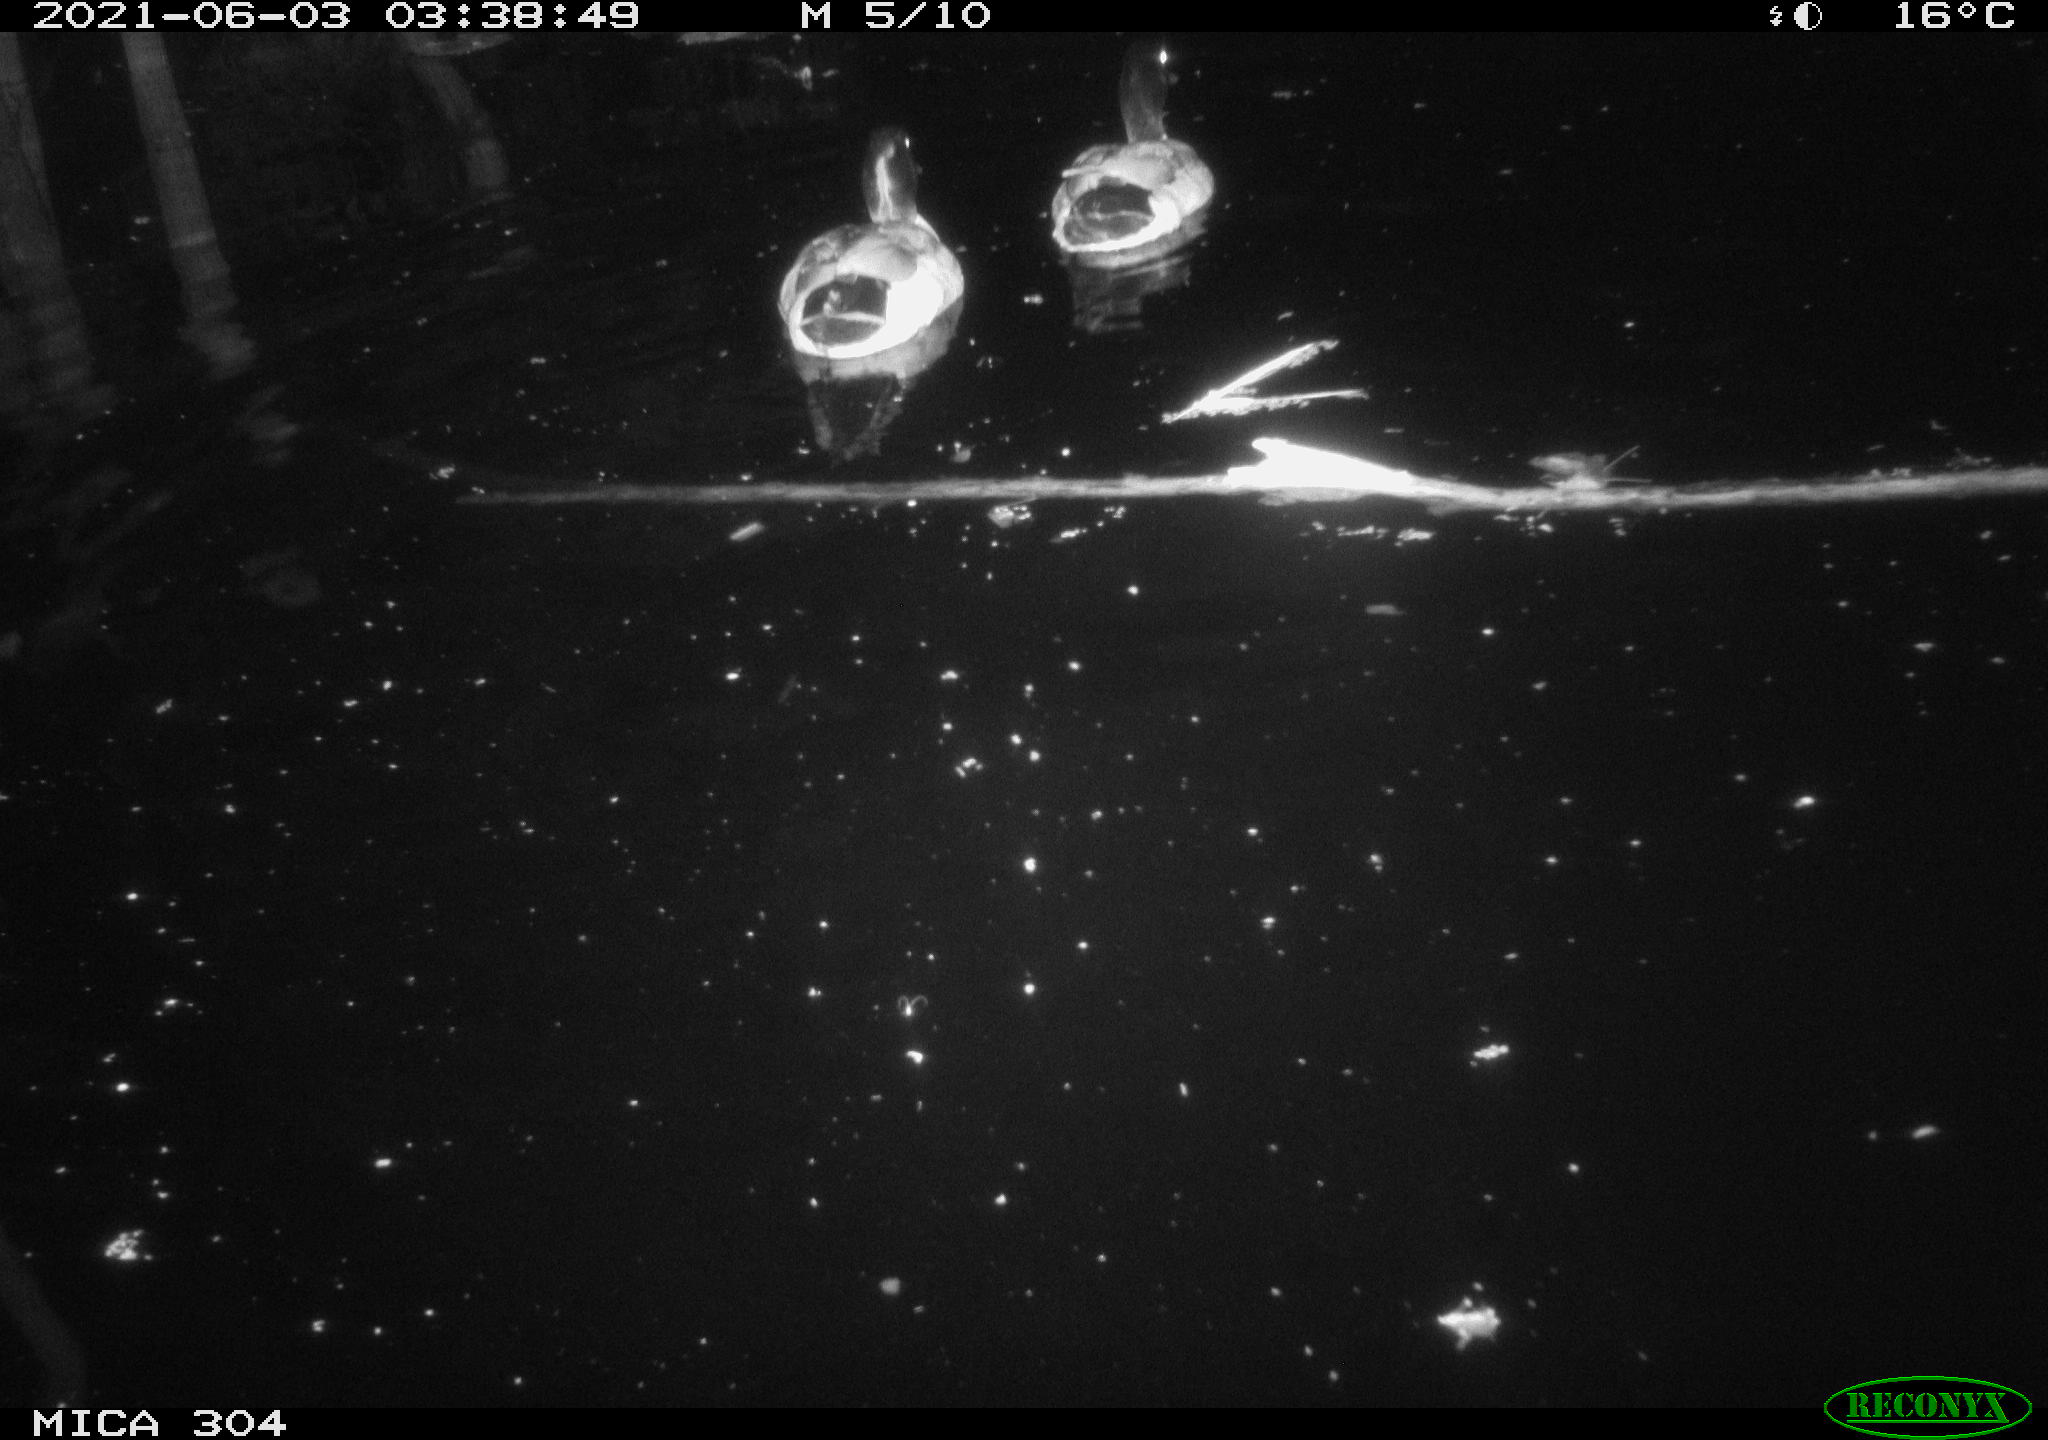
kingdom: Animalia
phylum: Chordata
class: Aves
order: Anseriformes
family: Anatidae
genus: Mareca
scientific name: Mareca strepera
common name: Gadwall
